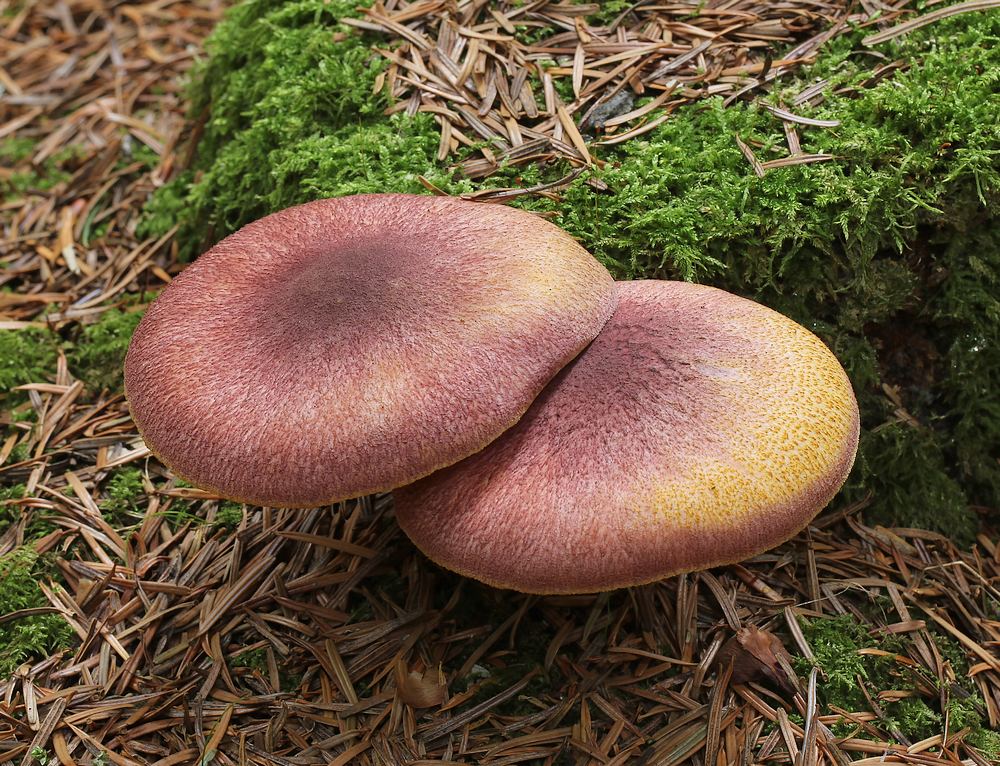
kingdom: Fungi
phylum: Basidiomycota
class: Agaricomycetes
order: Agaricales
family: Tricholomataceae
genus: Tricholomopsis
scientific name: Tricholomopsis rutilans
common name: purpur-væbnerhat
